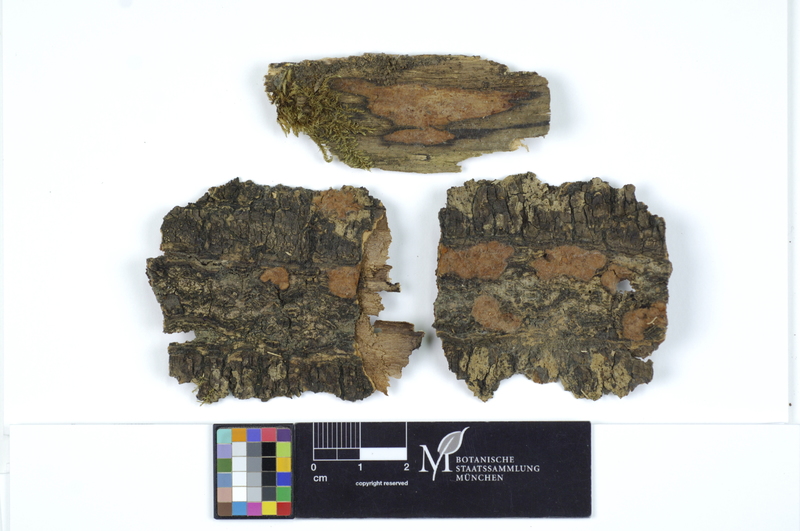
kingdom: Fungi
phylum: Ascomycota
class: Sordariomycetes
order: Xylariales
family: Hypoxylaceae
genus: Hypoxylon
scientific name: Hypoxylon rubiginosum
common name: Rusty woodwart
